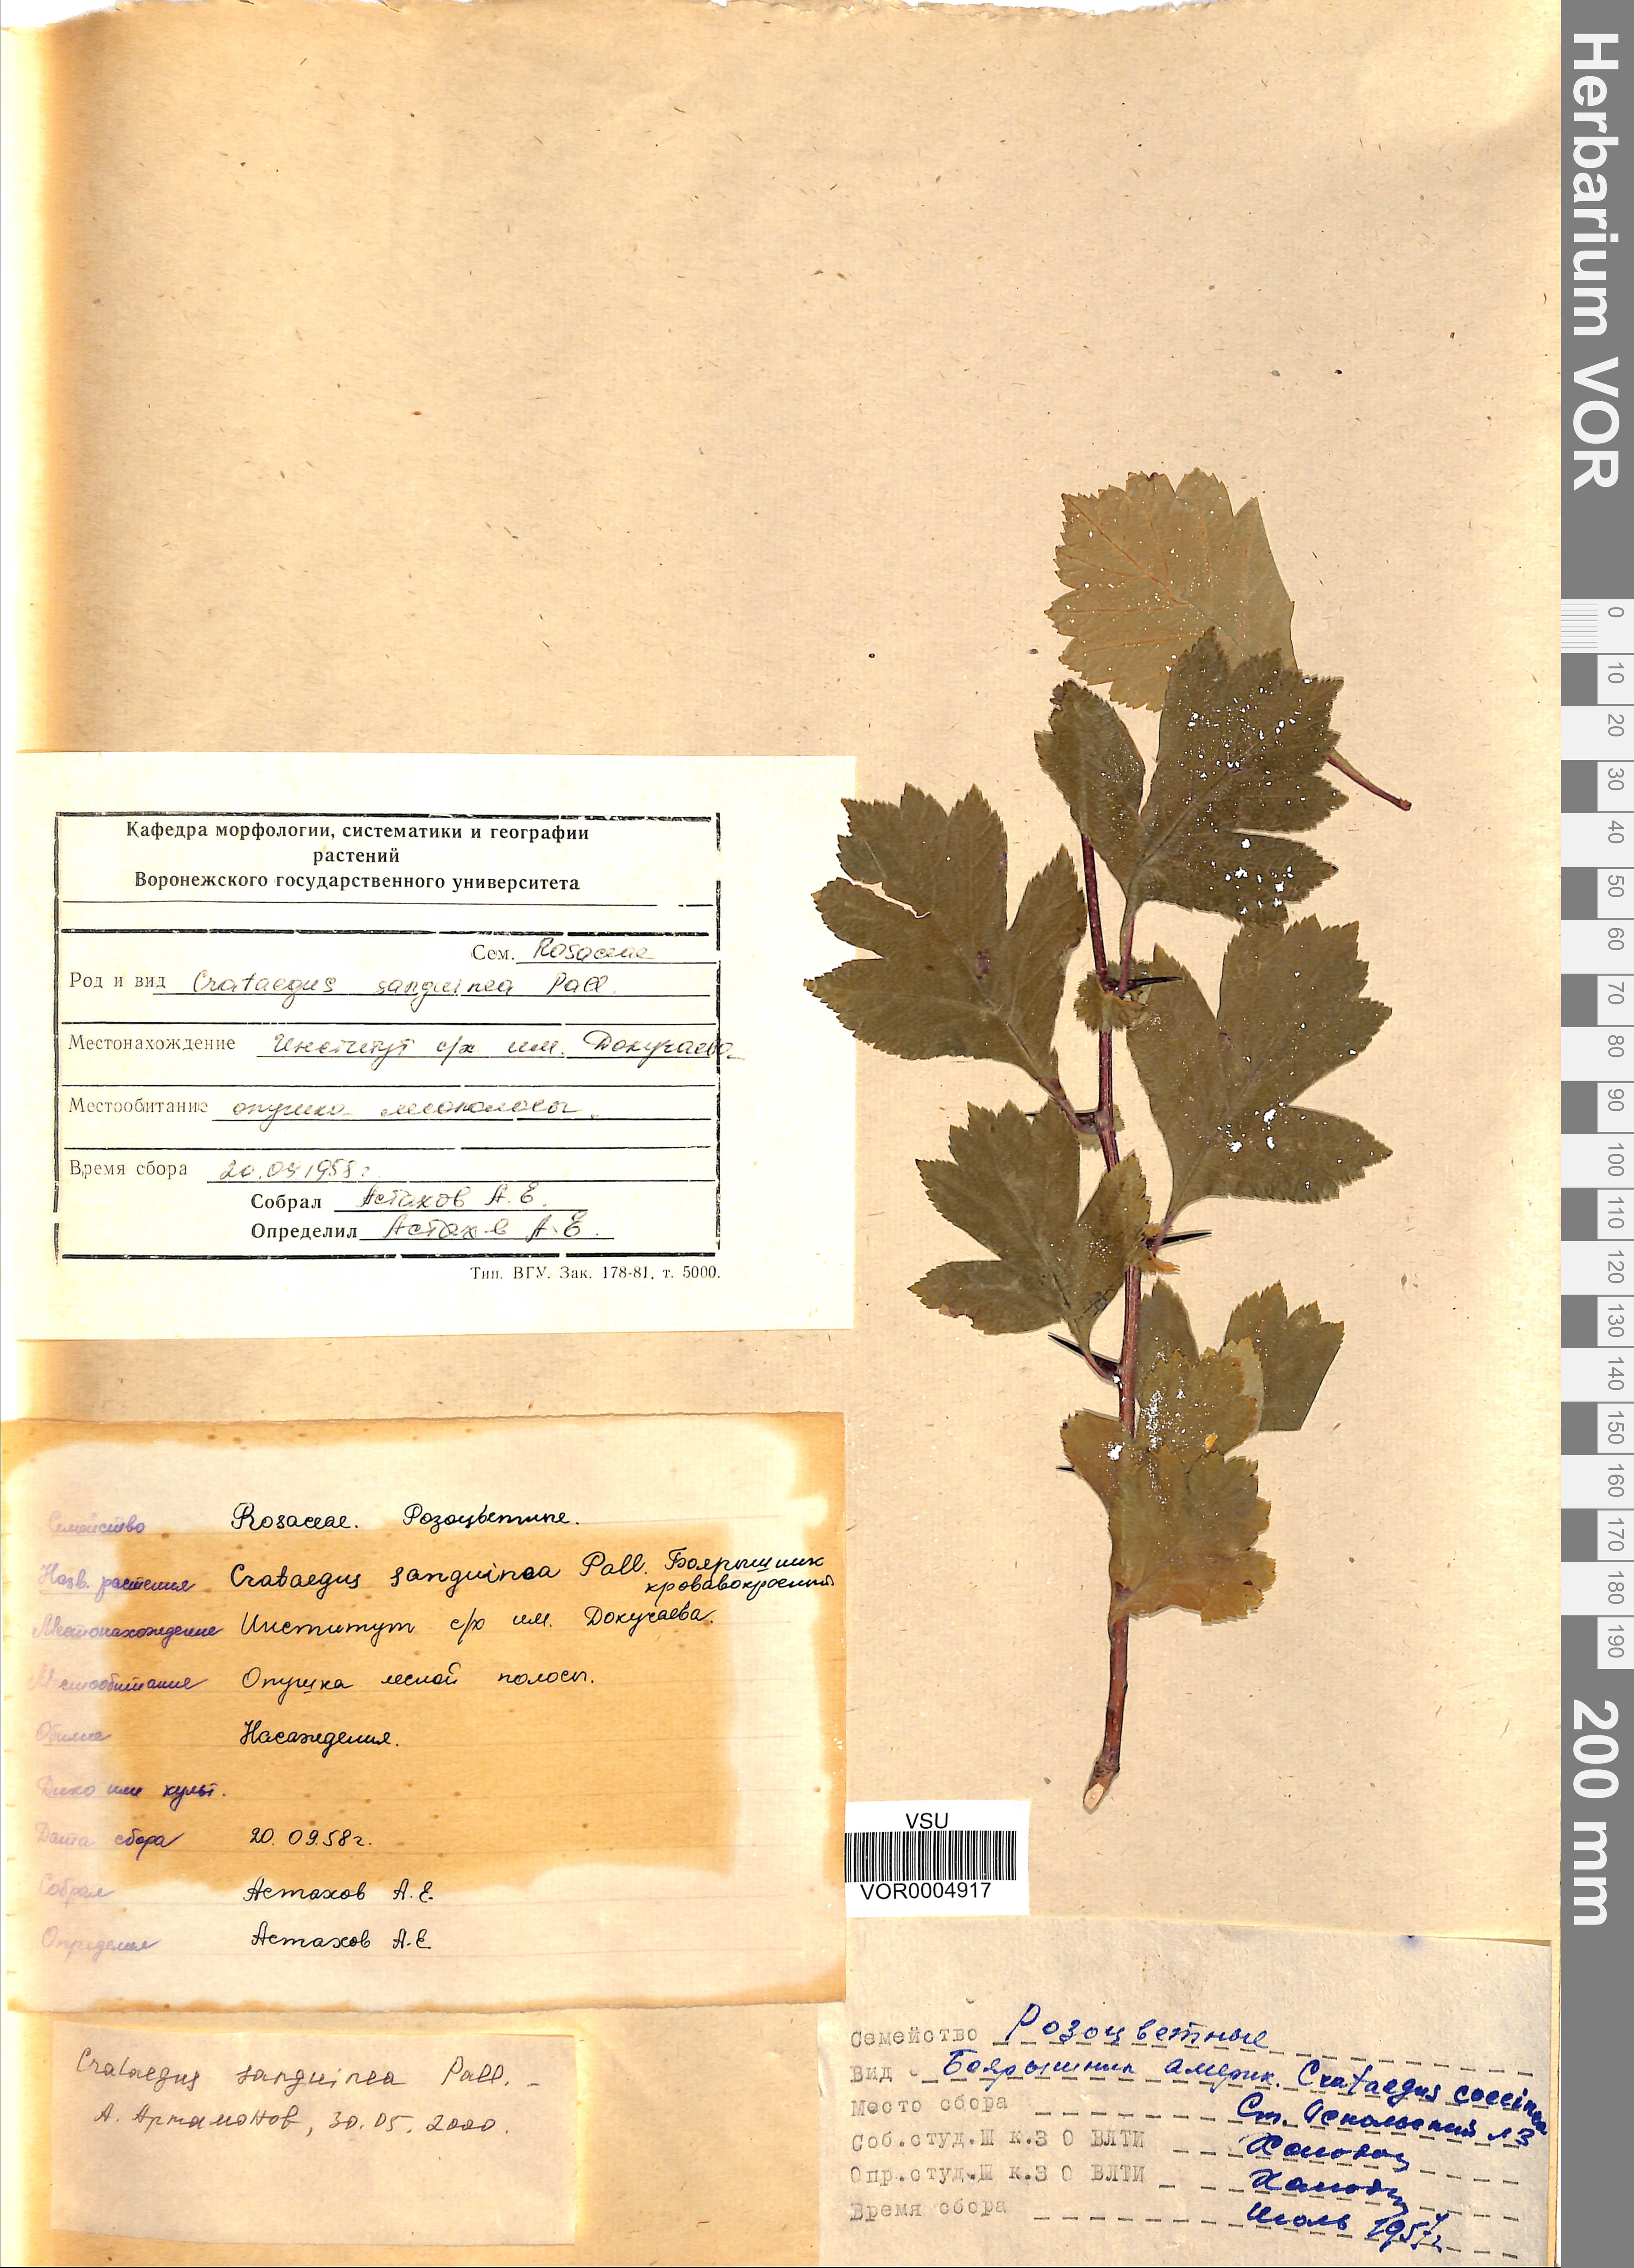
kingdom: Plantae
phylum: Tracheophyta
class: Magnoliopsida
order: Rosales
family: Rosaceae
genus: Crataegus
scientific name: Crataegus sanguinea
